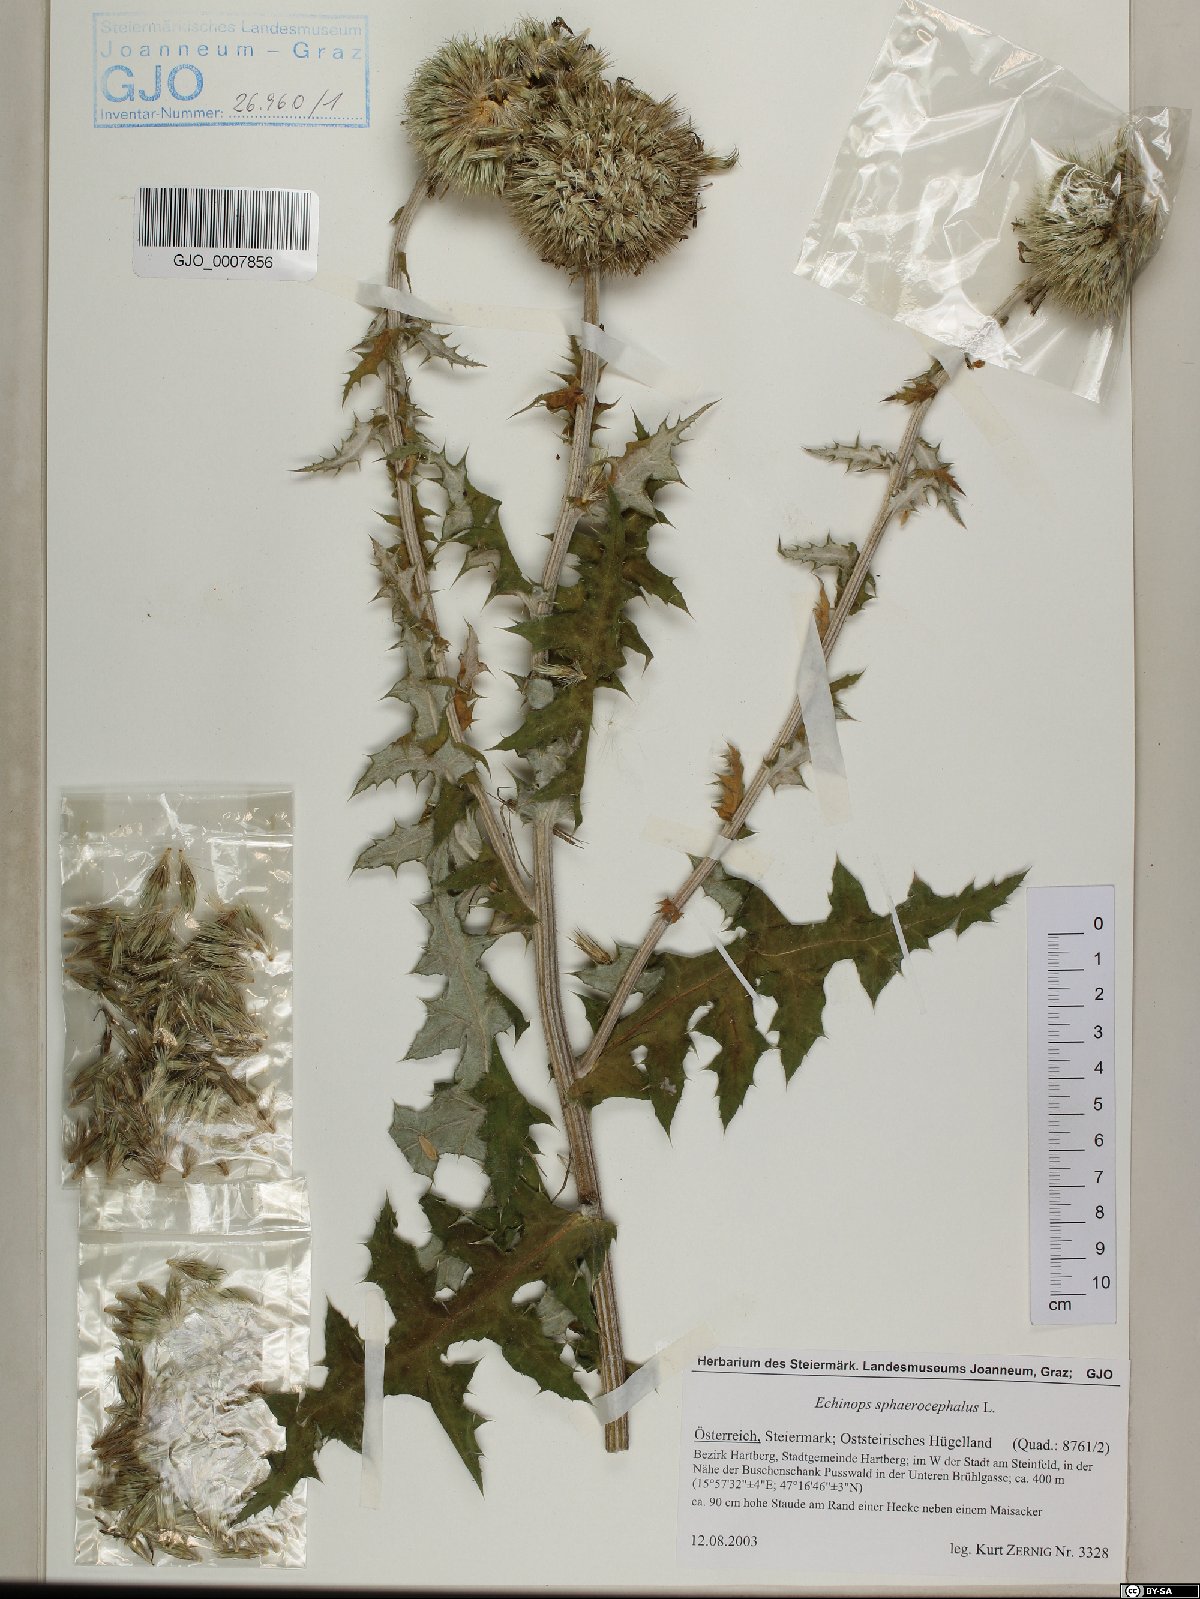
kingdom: Plantae
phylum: Tracheophyta
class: Magnoliopsida
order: Asterales
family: Asteraceae
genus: Echinops
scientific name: Echinops sphaerocephalus
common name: Glandular globe-thistle
